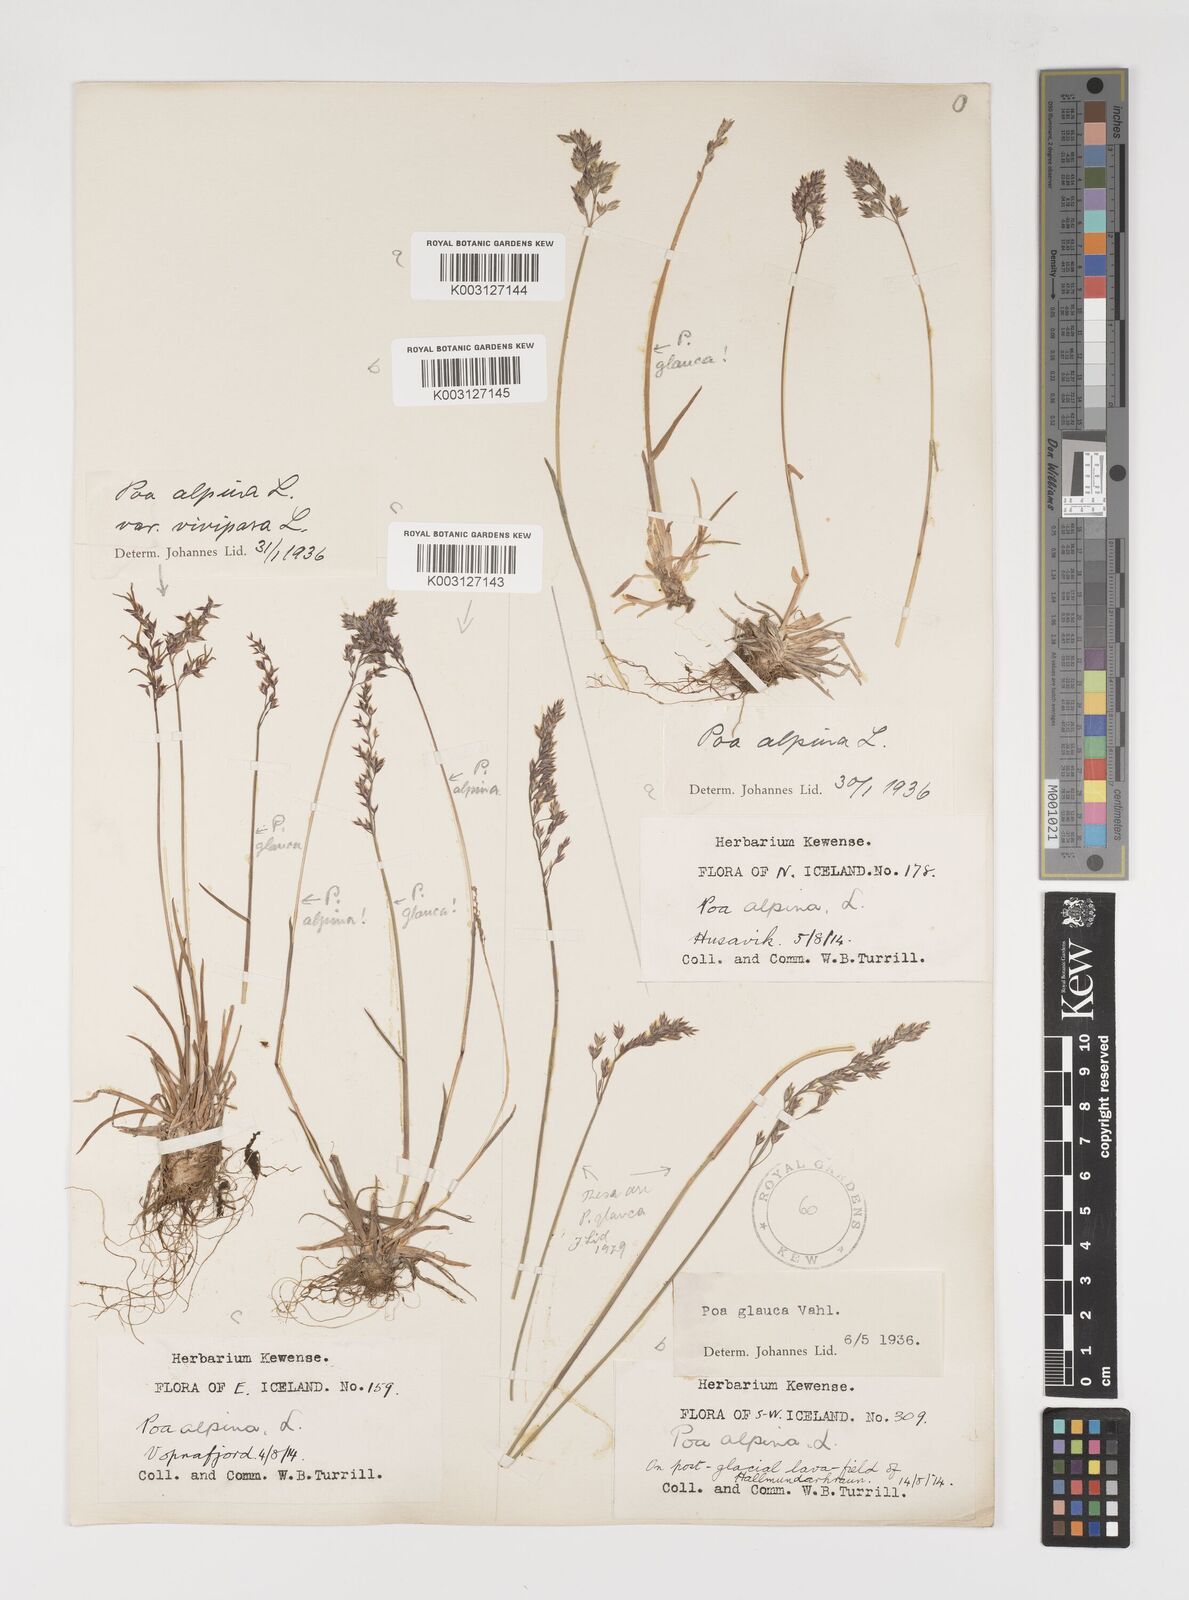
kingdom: Plantae
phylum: Tracheophyta
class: Liliopsida
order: Poales
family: Poaceae
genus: Poa
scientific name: Poa alpina
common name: Alpine bluegrass
